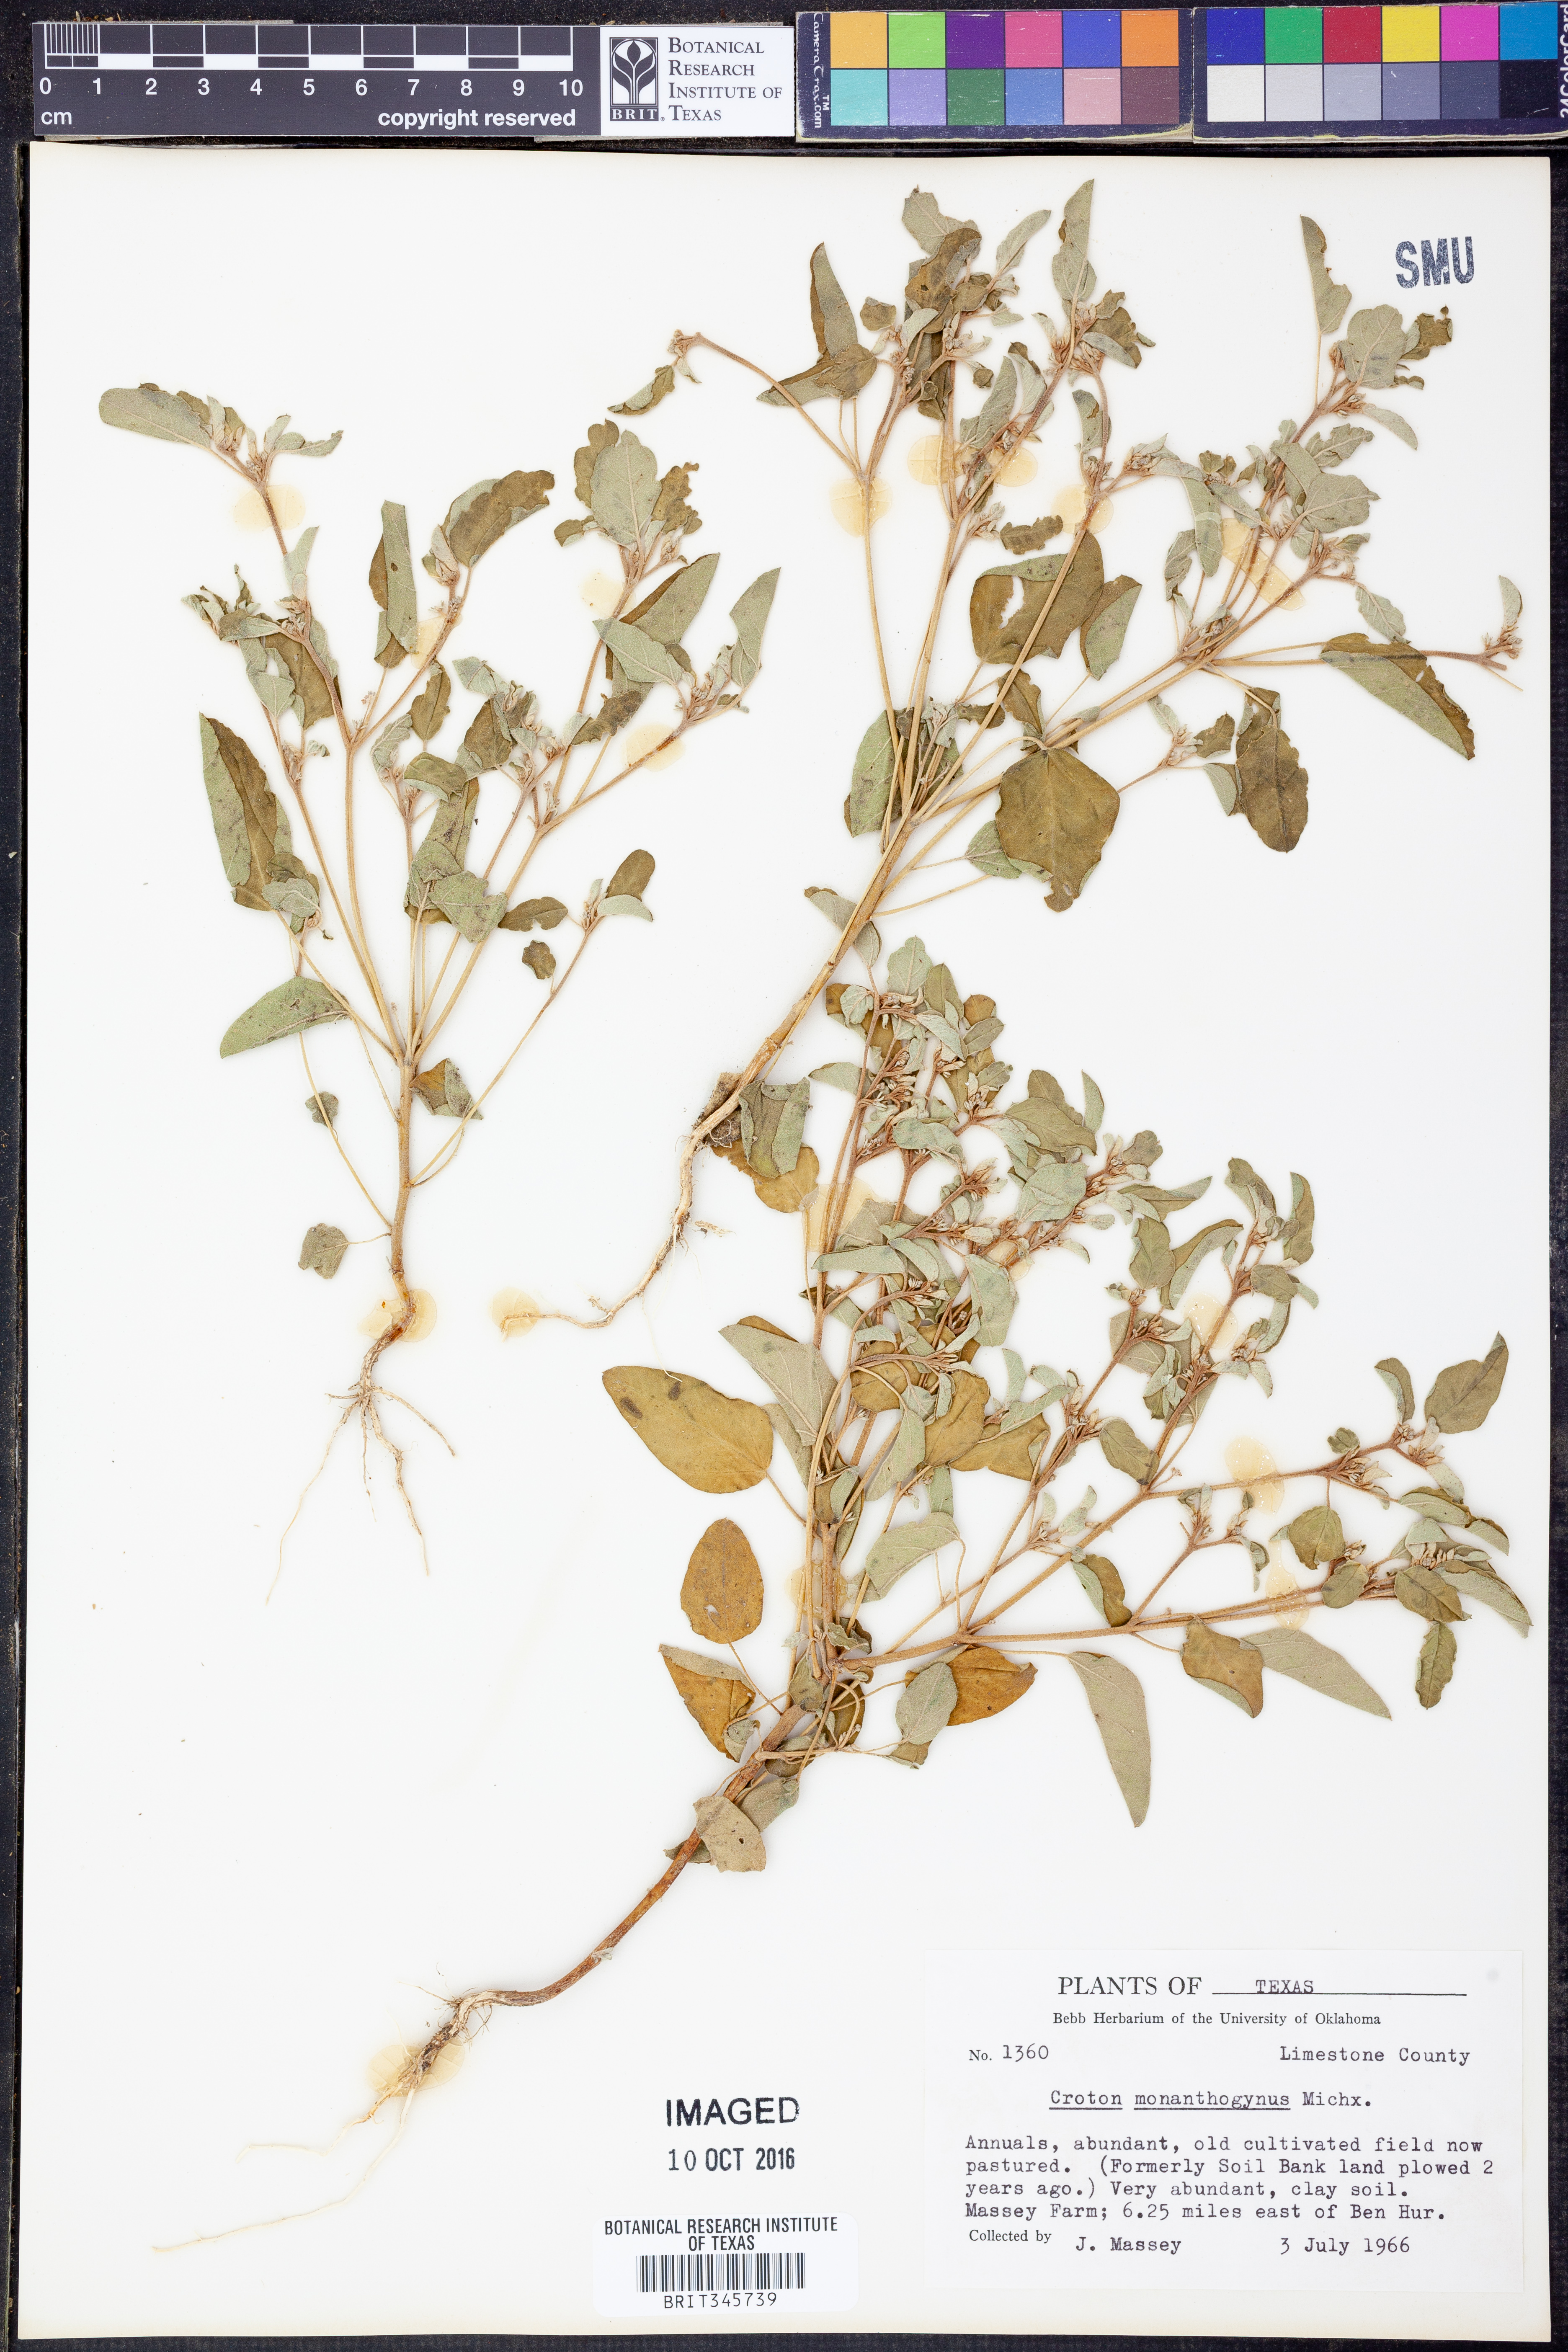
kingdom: Plantae
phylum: Tracheophyta
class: Magnoliopsida
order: Malpighiales
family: Euphorbiaceae
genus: Croton
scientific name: Croton monanthogynus
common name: One-seed croton
